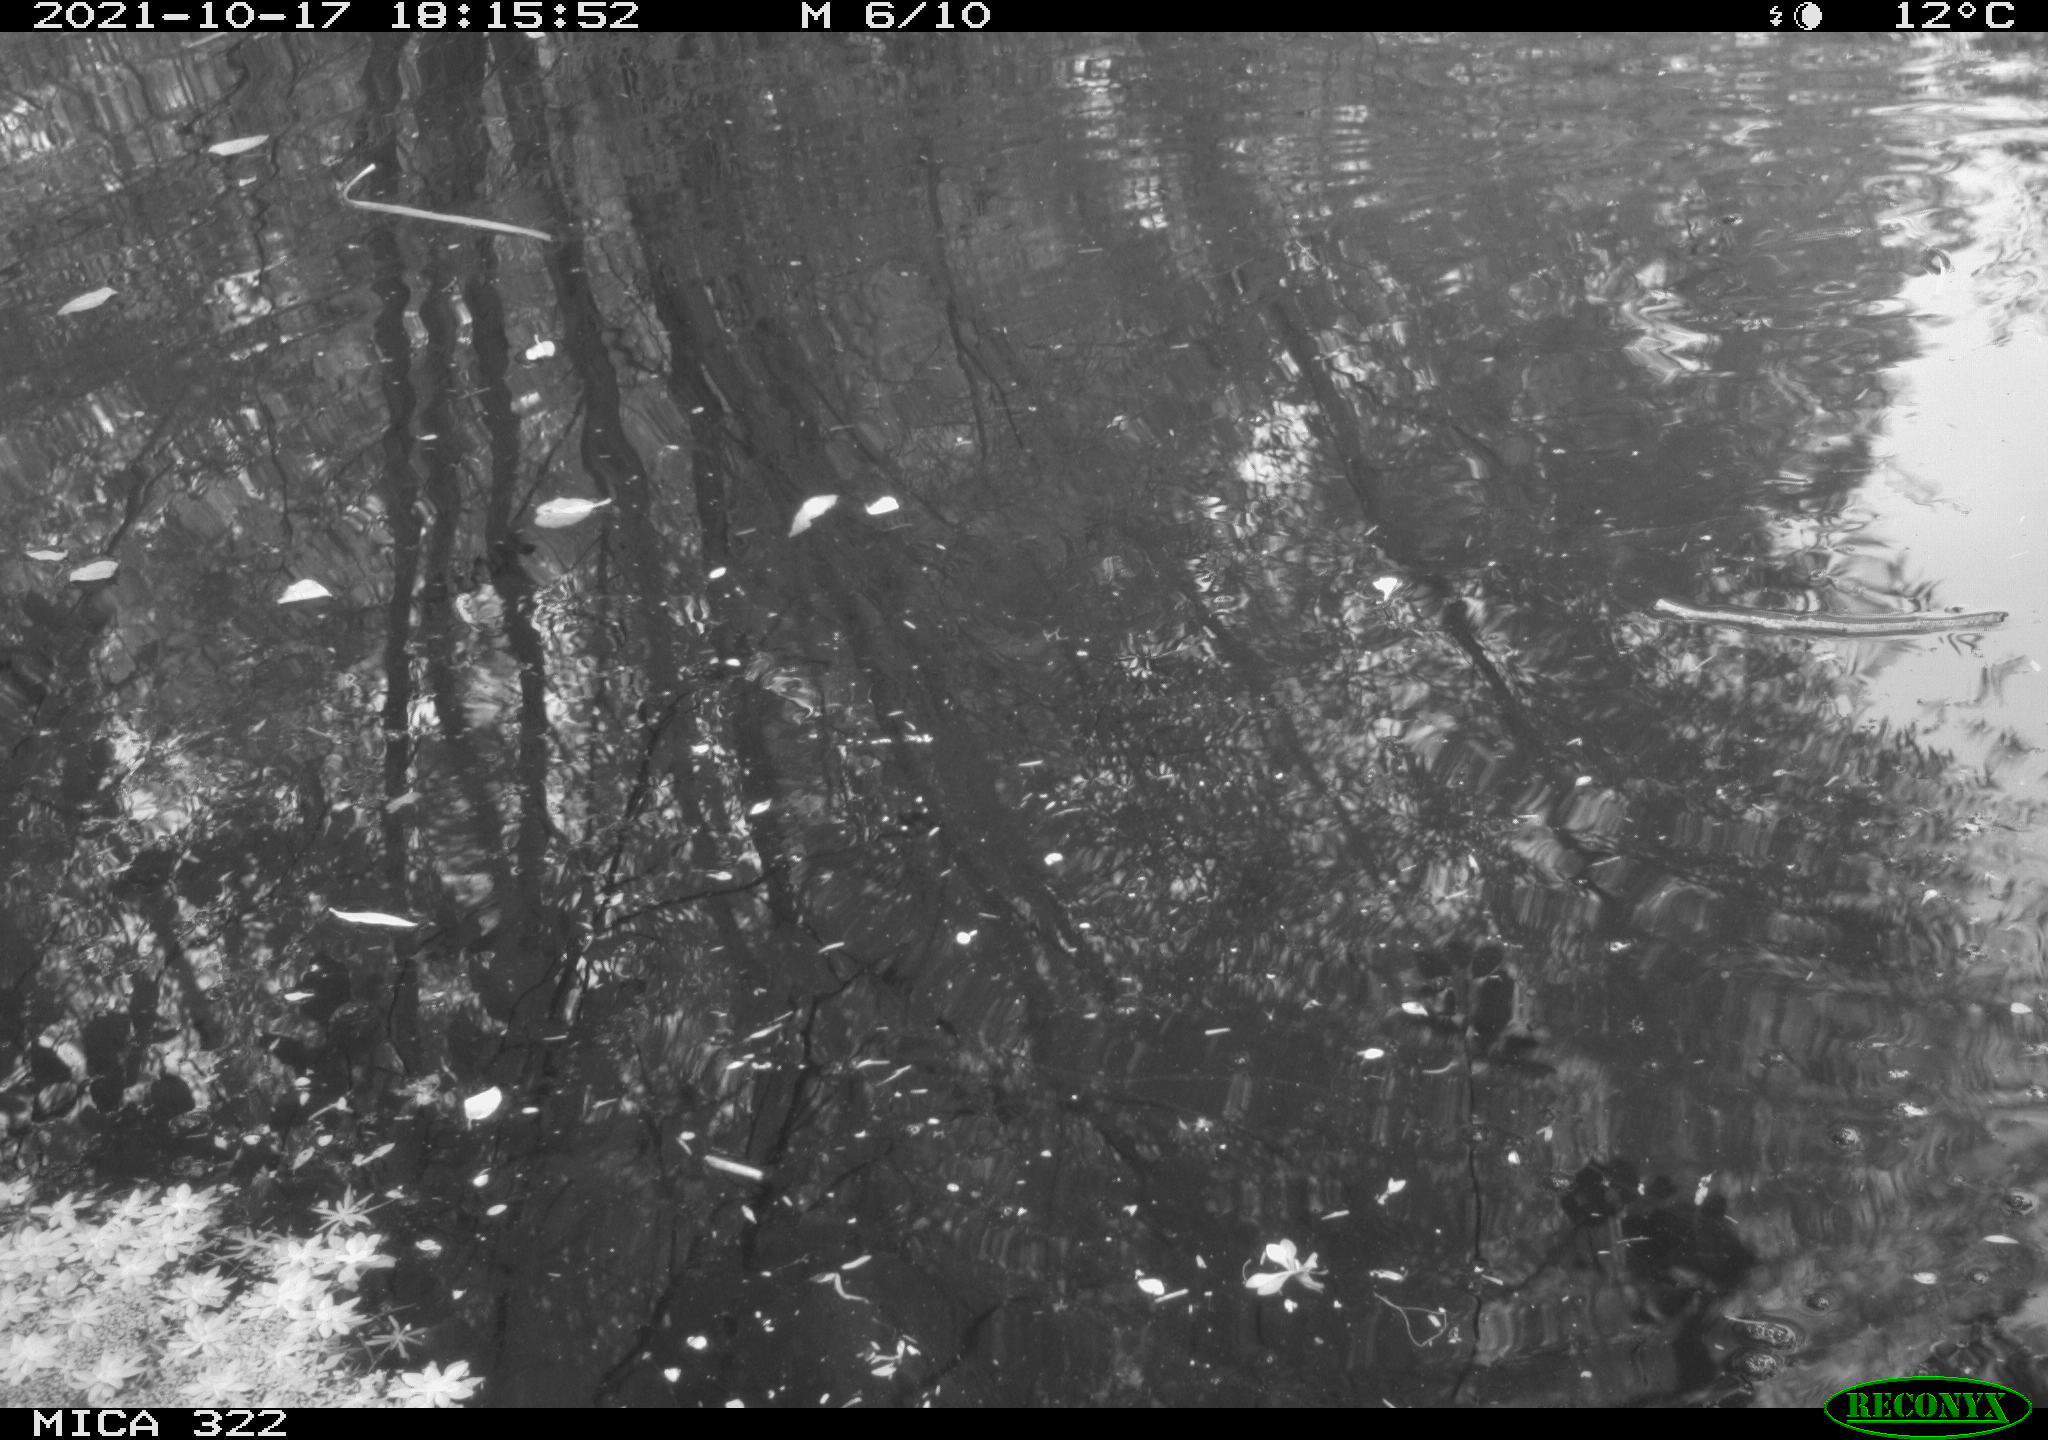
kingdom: Animalia
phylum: Chordata
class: Aves
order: Podicipediformes
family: Podicipedidae
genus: Tachybaptus
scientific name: Tachybaptus ruficollis
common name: Little grebe
